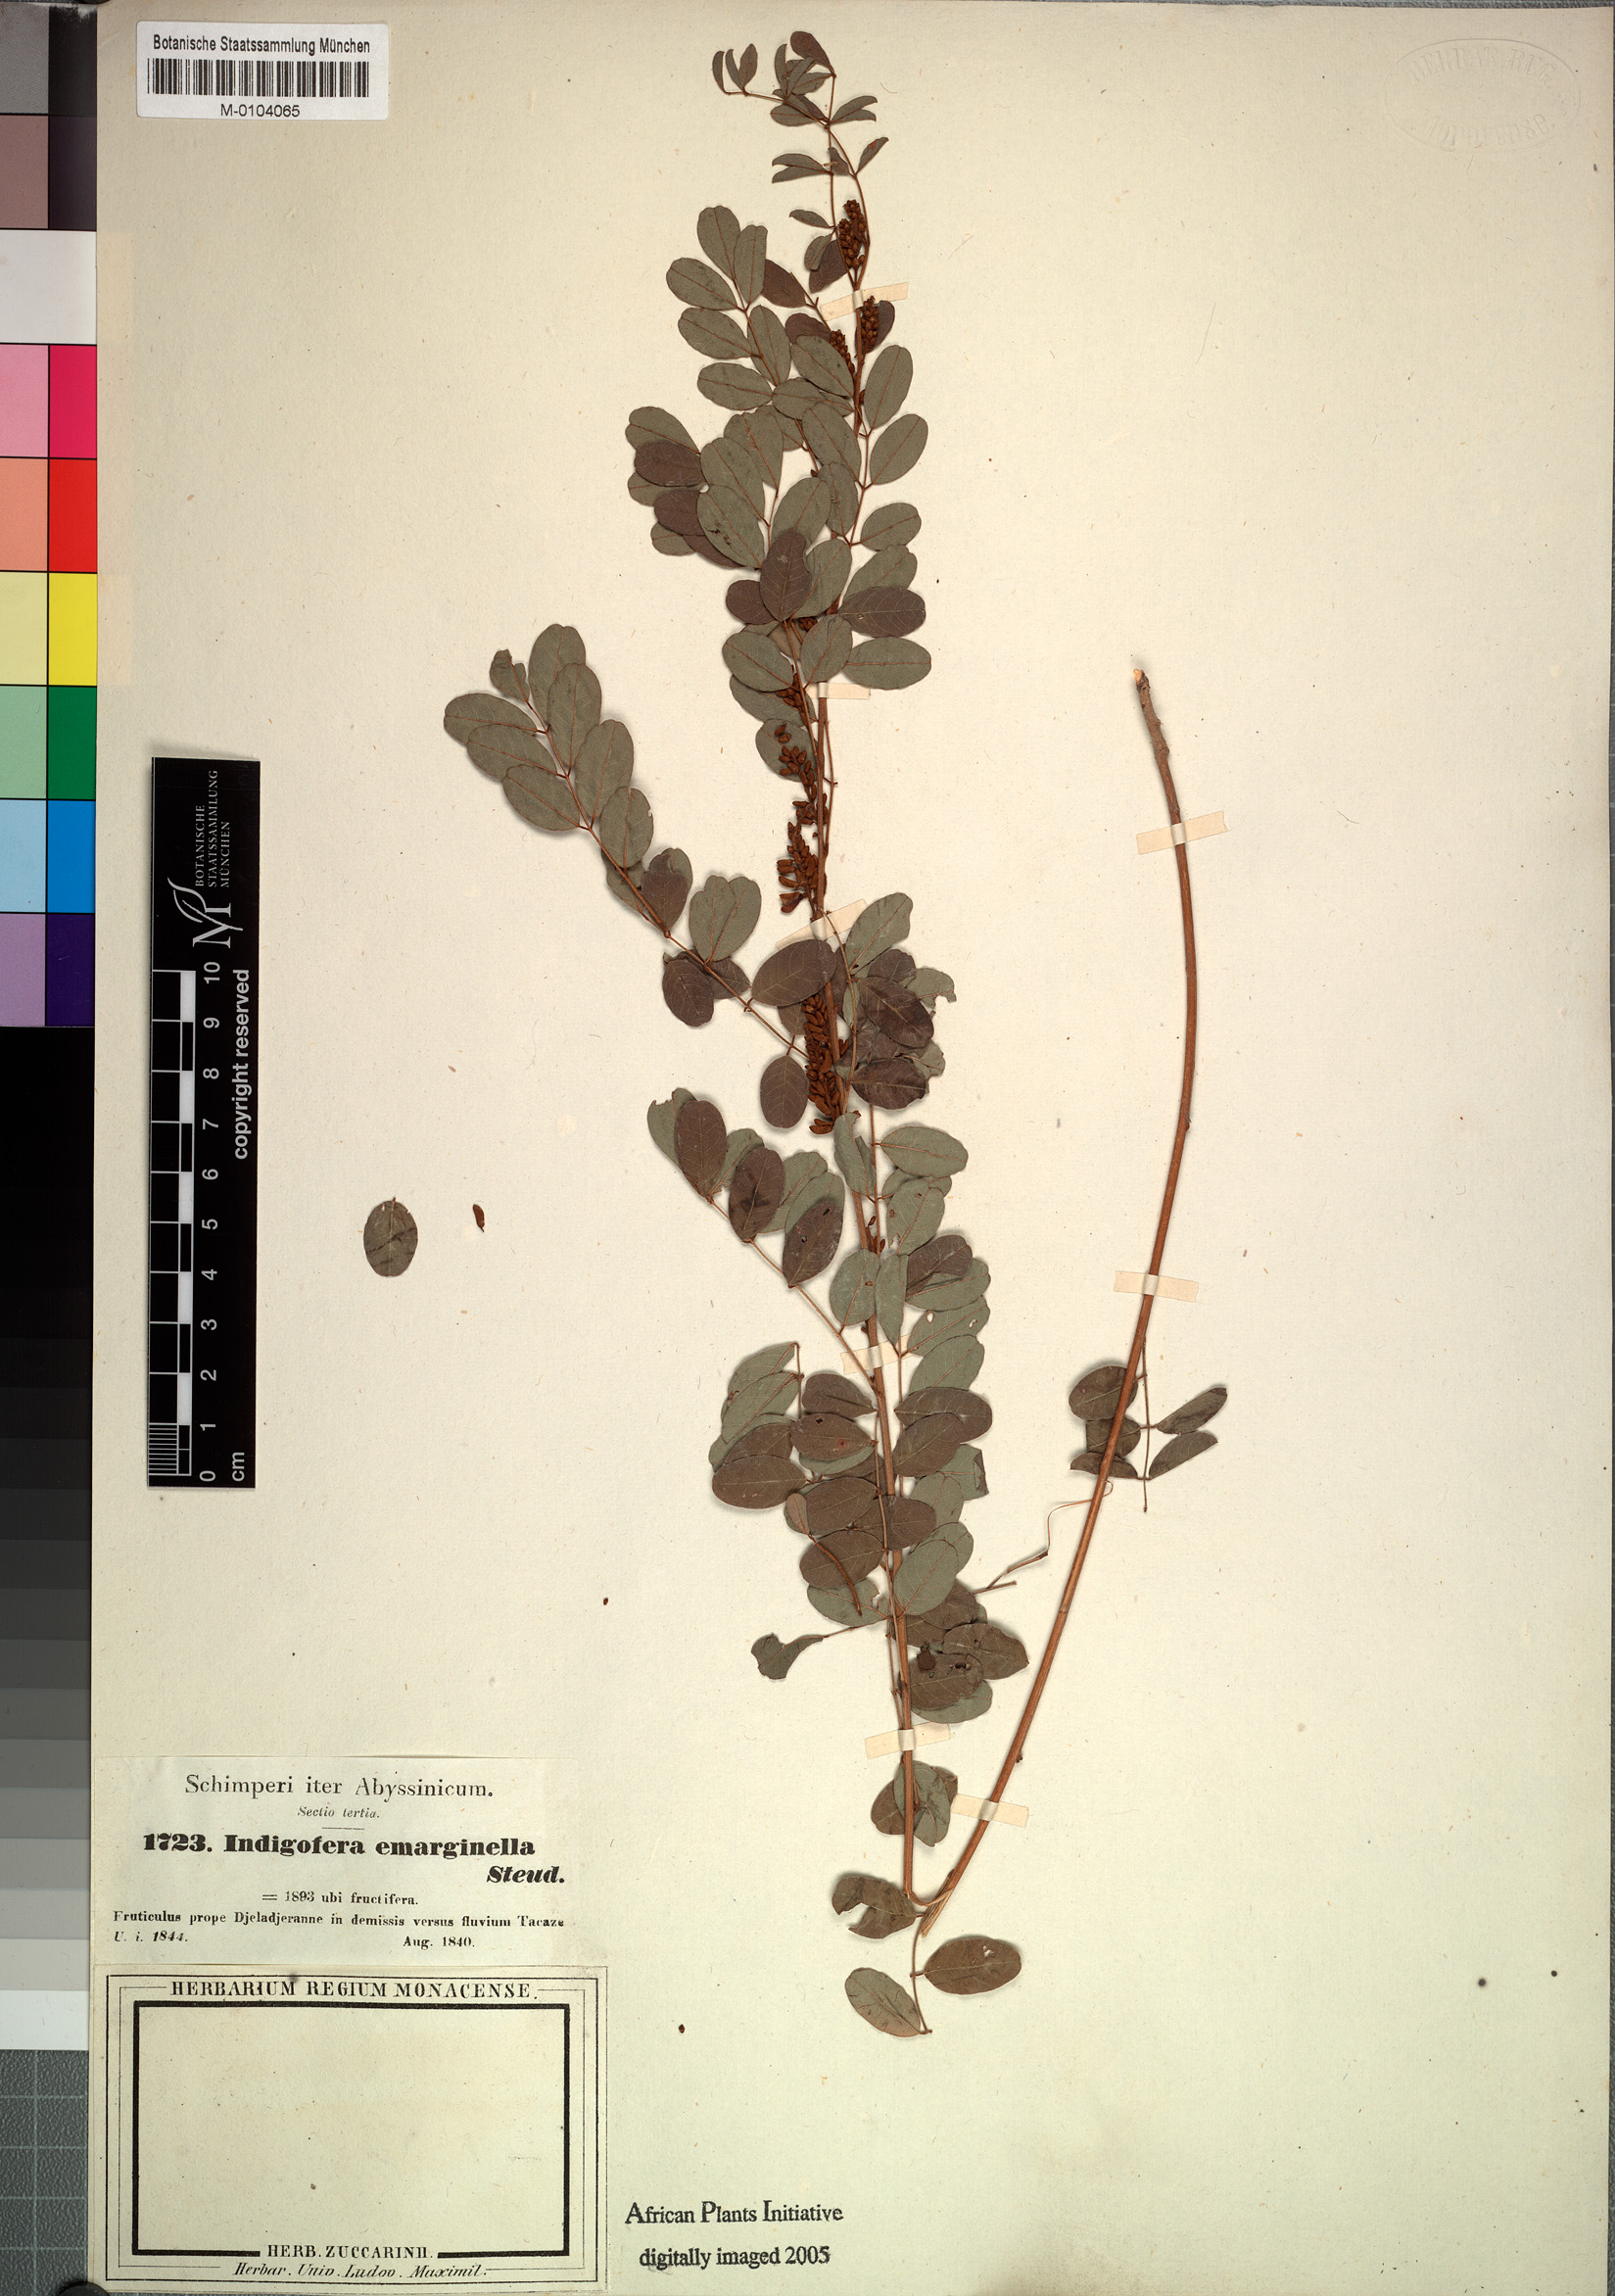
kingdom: Plantae
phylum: Tracheophyta
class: Magnoliopsida
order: Fabales
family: Fabaceae
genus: Indigofera
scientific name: Indigofera emarginella
